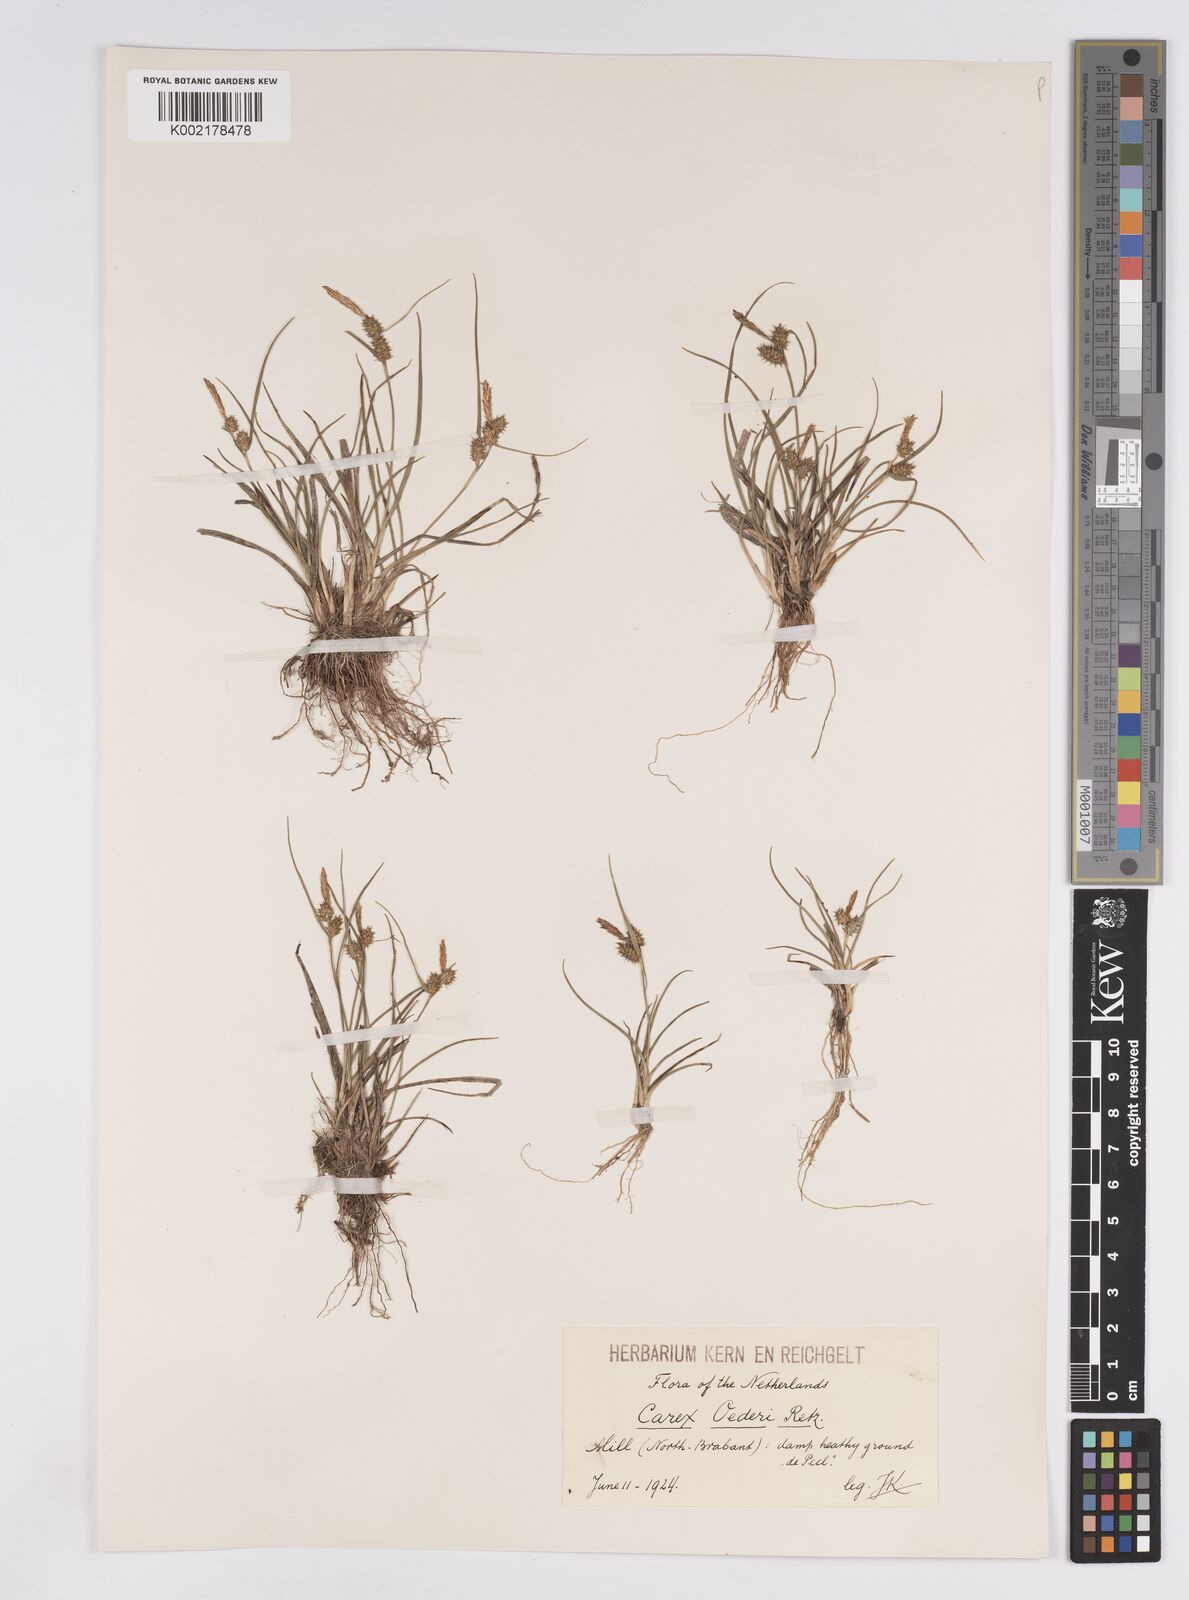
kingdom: Plantae
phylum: Tracheophyta
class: Liliopsida
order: Poales
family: Cyperaceae
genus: Carex
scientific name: Carex demissa
